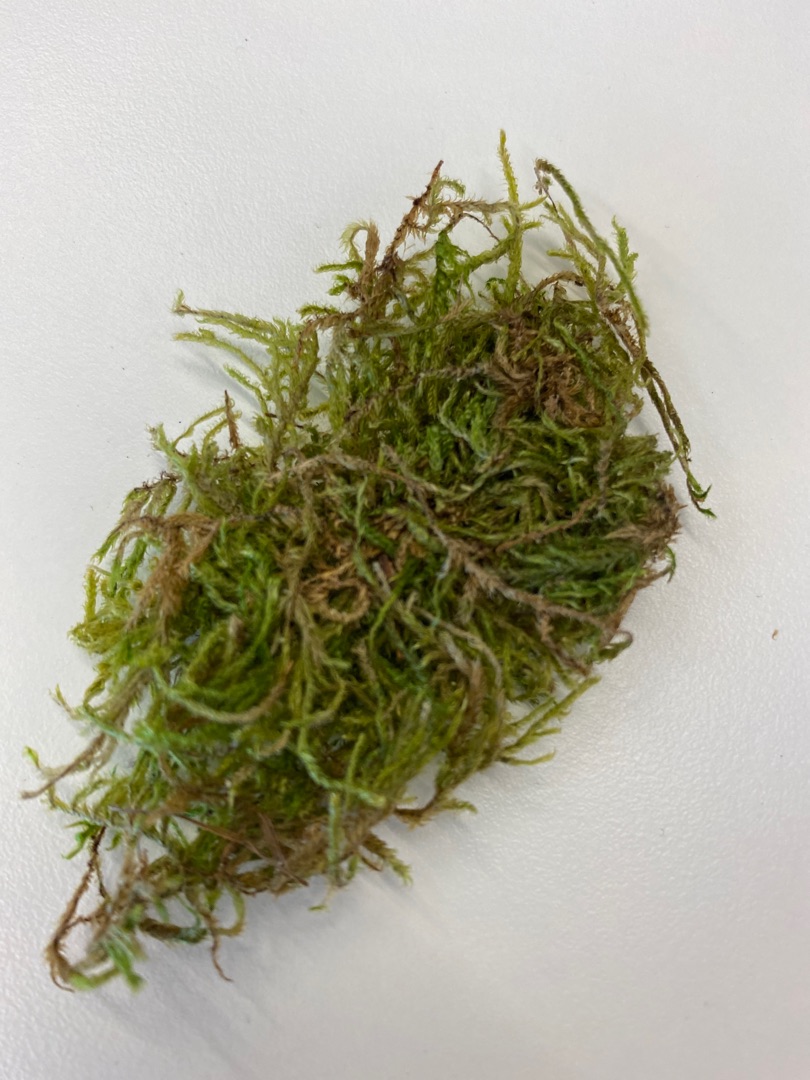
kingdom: Plantae
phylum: Bryophyta
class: Bryopsida
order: Hypnales
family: Hypnaceae
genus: Hypnum
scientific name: Hypnum
